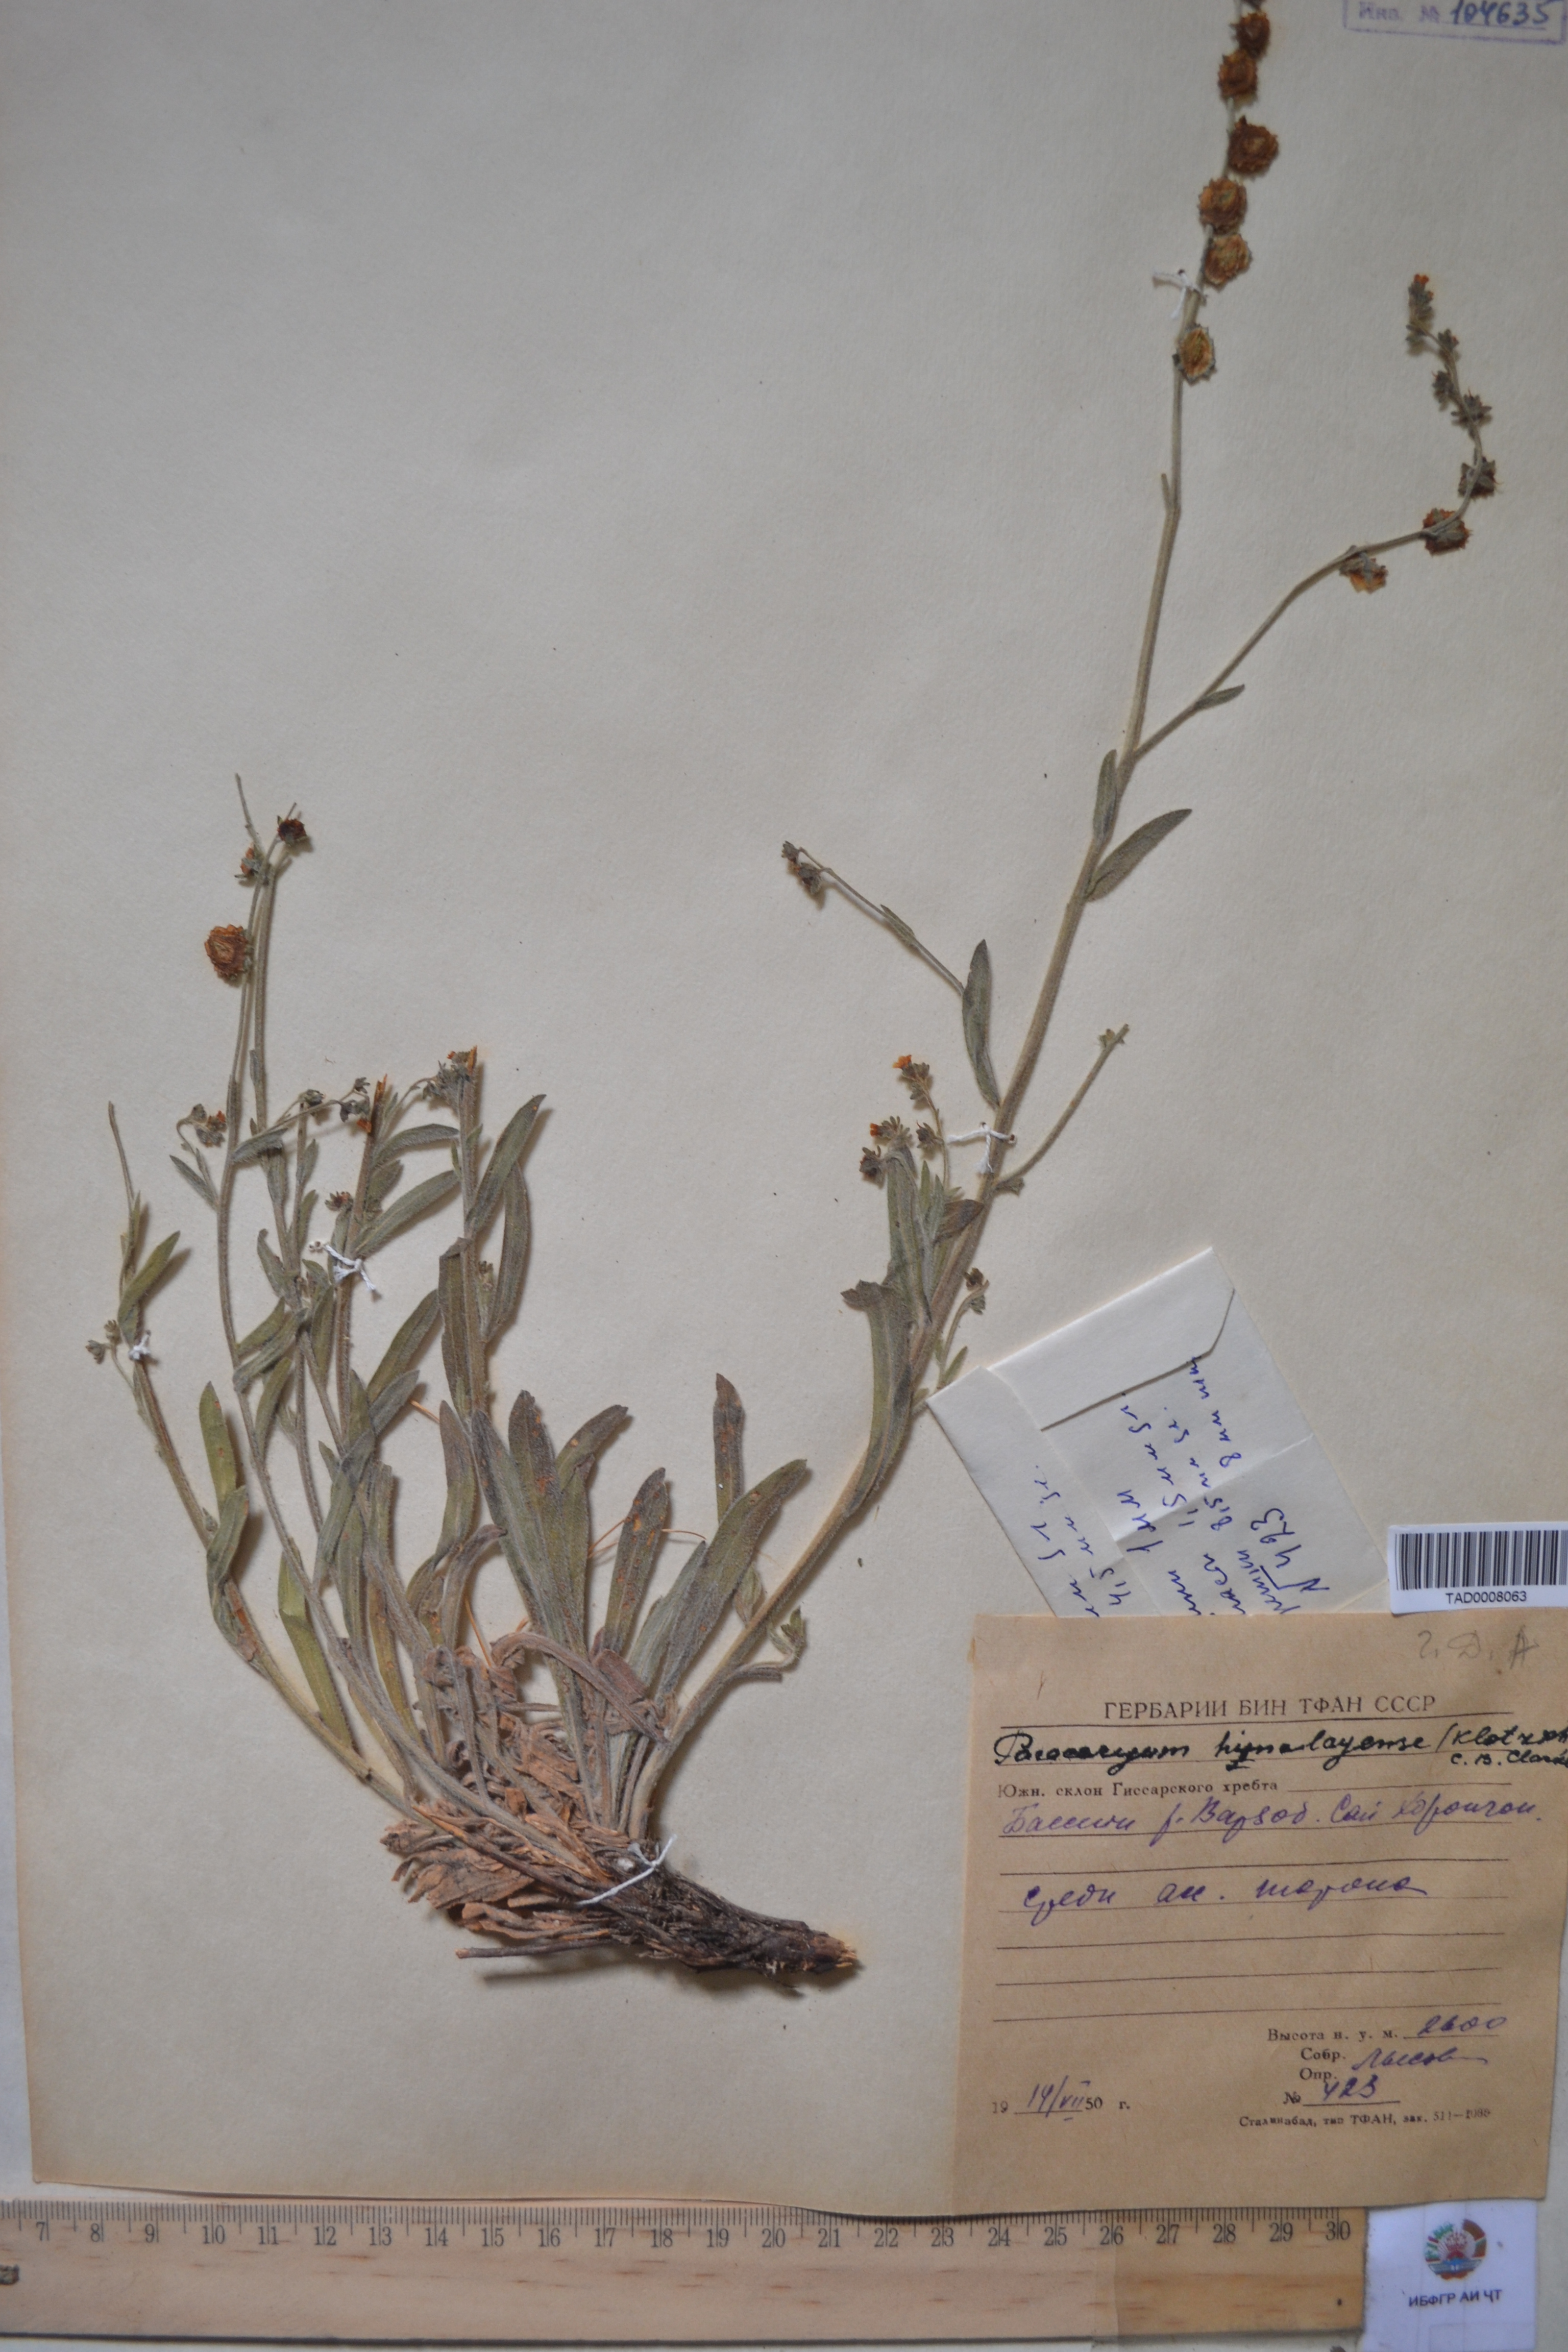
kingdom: Plantae
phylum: Tracheophyta
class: Magnoliopsida
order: Boraginales
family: Boraginaceae
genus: Paracaryum
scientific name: Paracaryum himalayense
